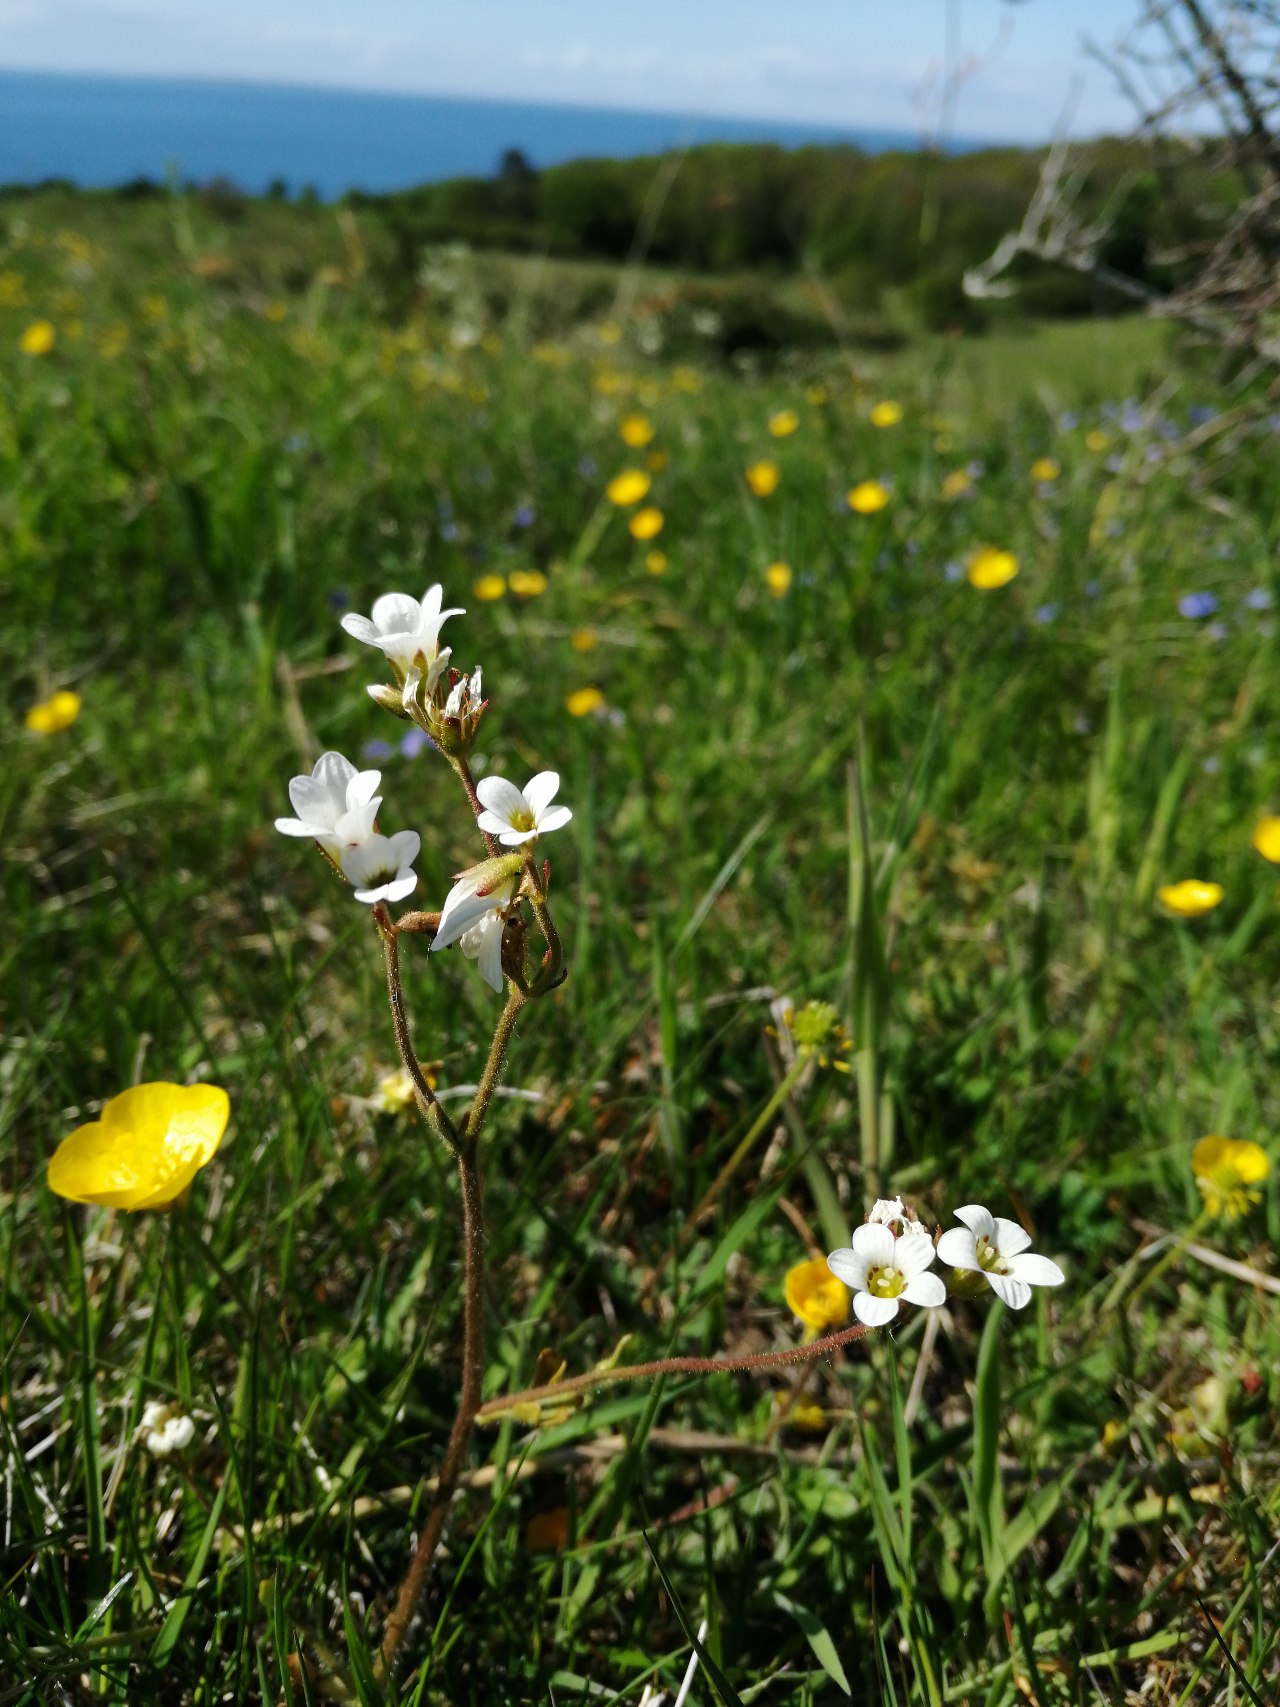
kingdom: Plantae
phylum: Tracheophyta
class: Magnoliopsida
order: Saxifragales
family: Saxifragaceae
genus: Saxifraga
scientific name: Saxifraga granulata
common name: Kornet stenbræk
